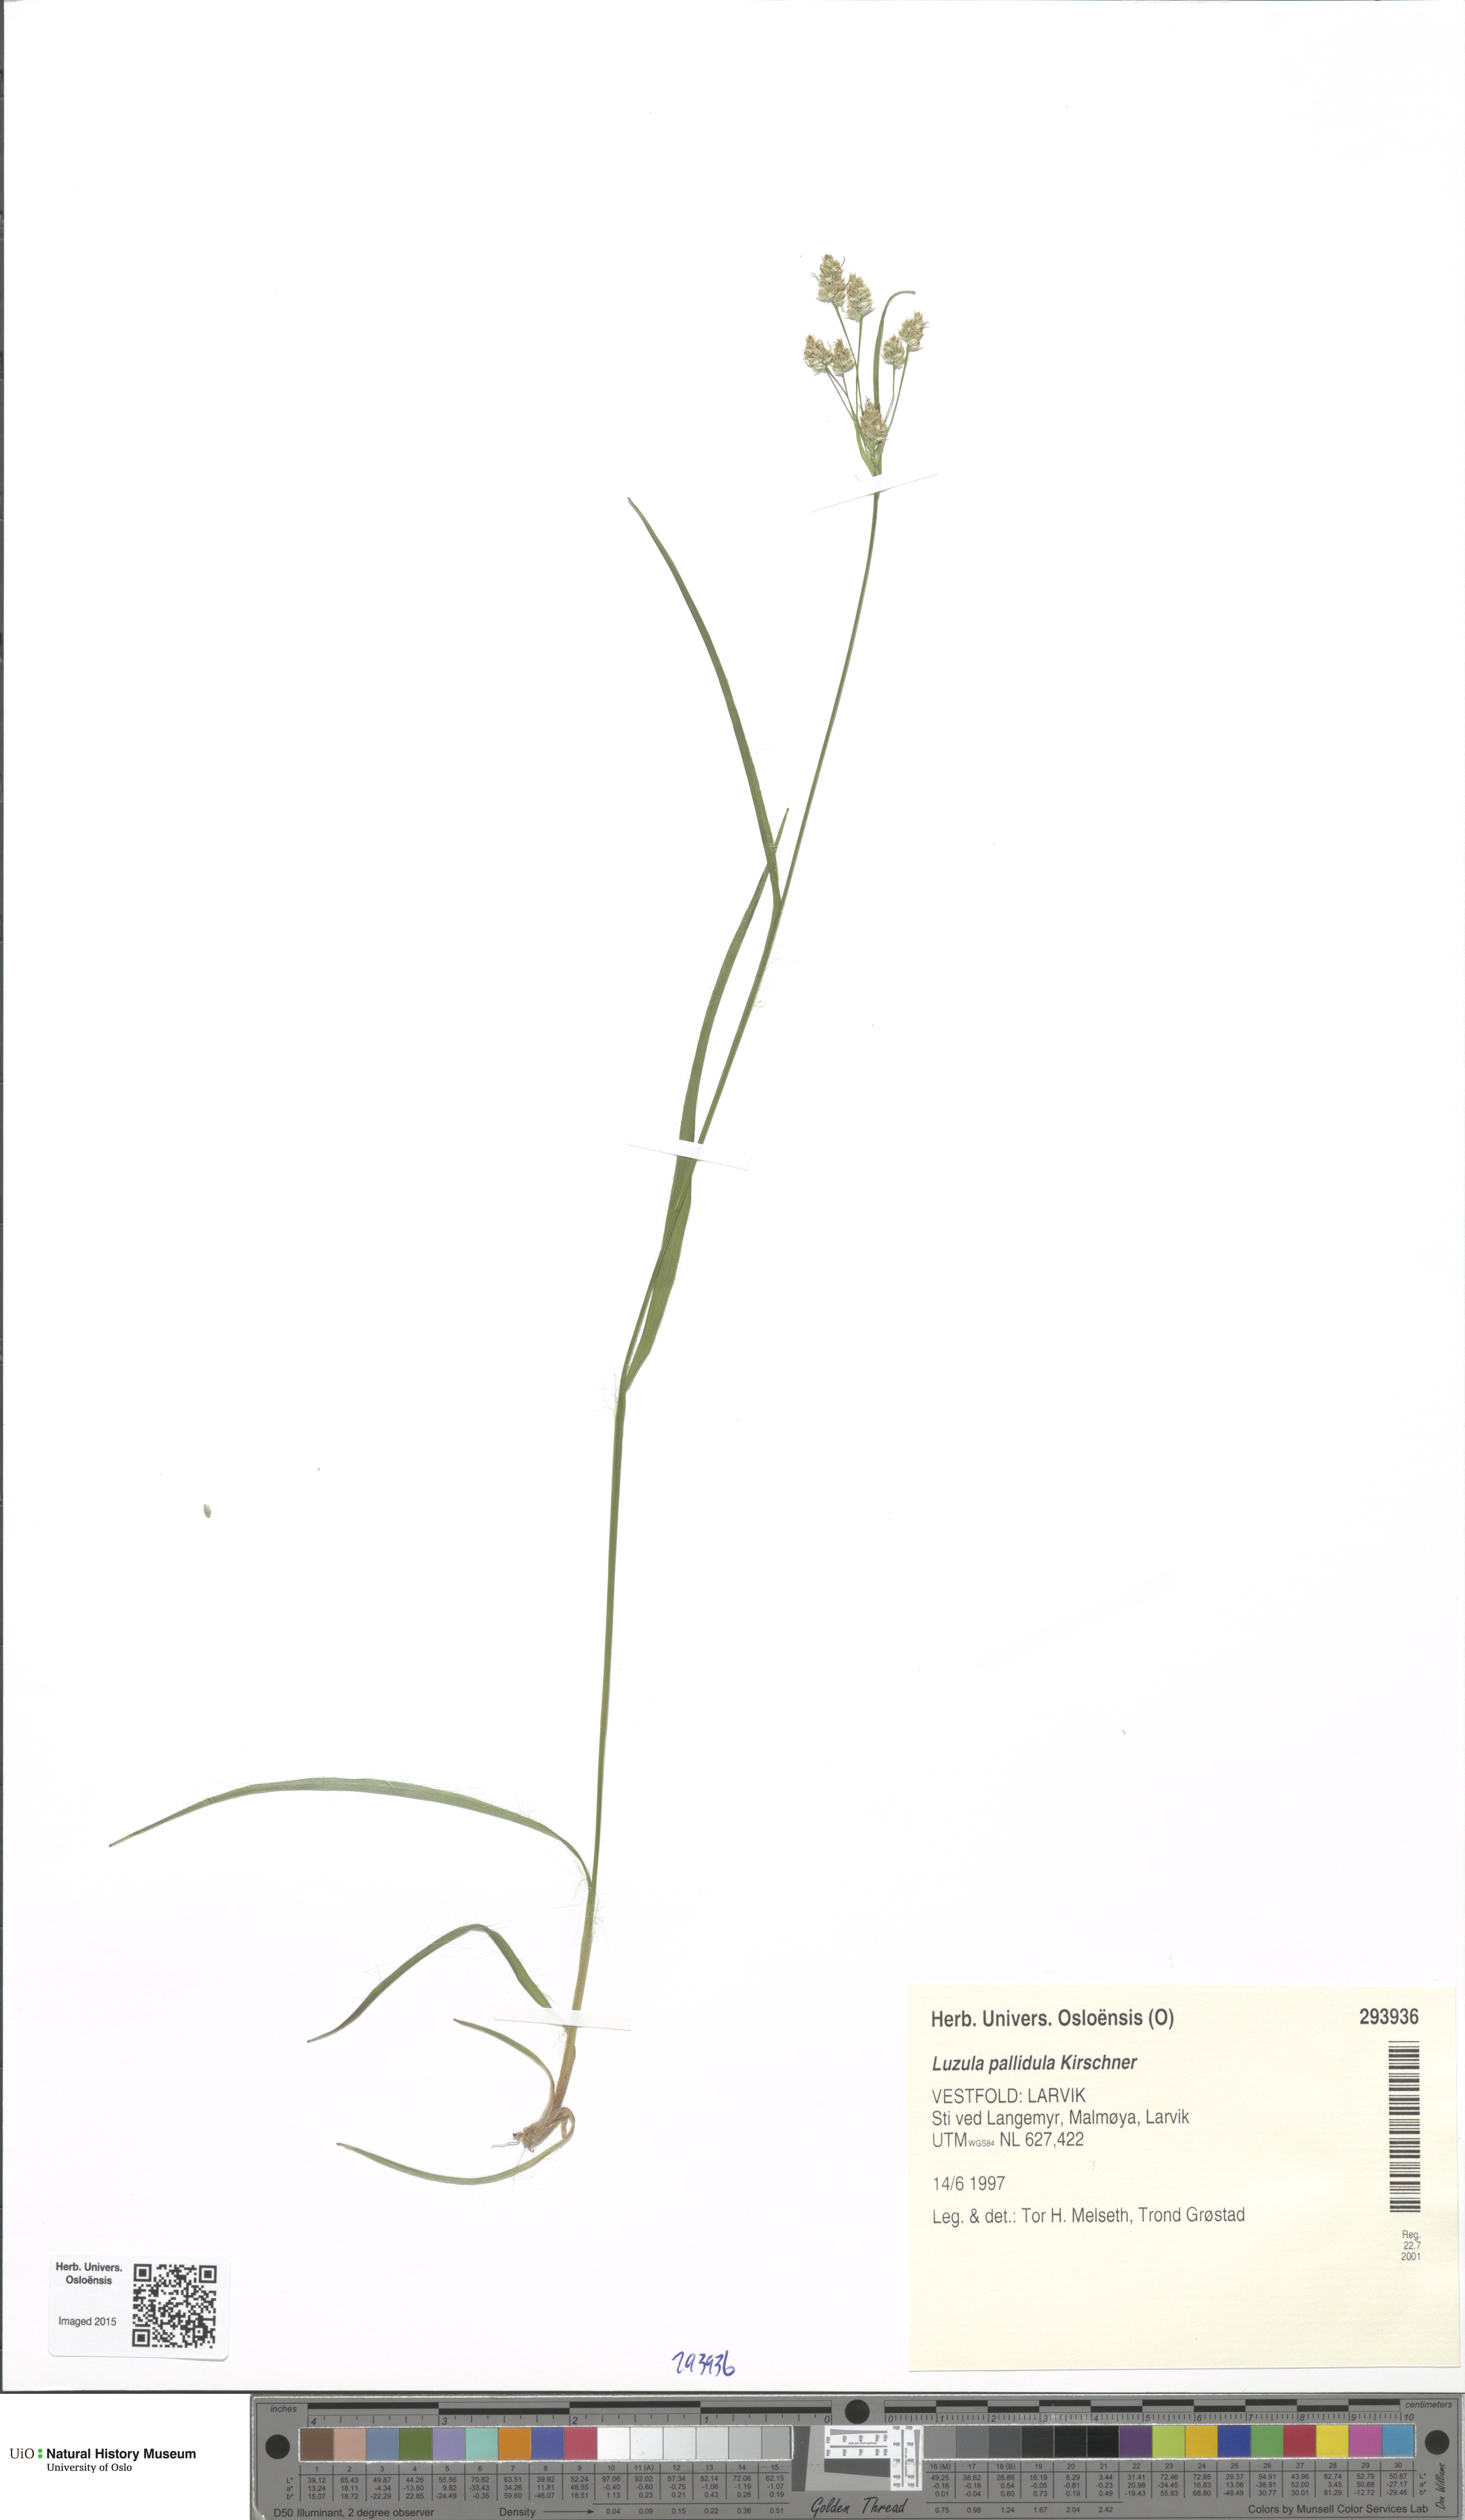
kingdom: Plantae
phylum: Tracheophyta
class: Liliopsida
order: Poales
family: Juncaceae
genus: Luzula
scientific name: Luzula pallescens
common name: Fen wood-rush
